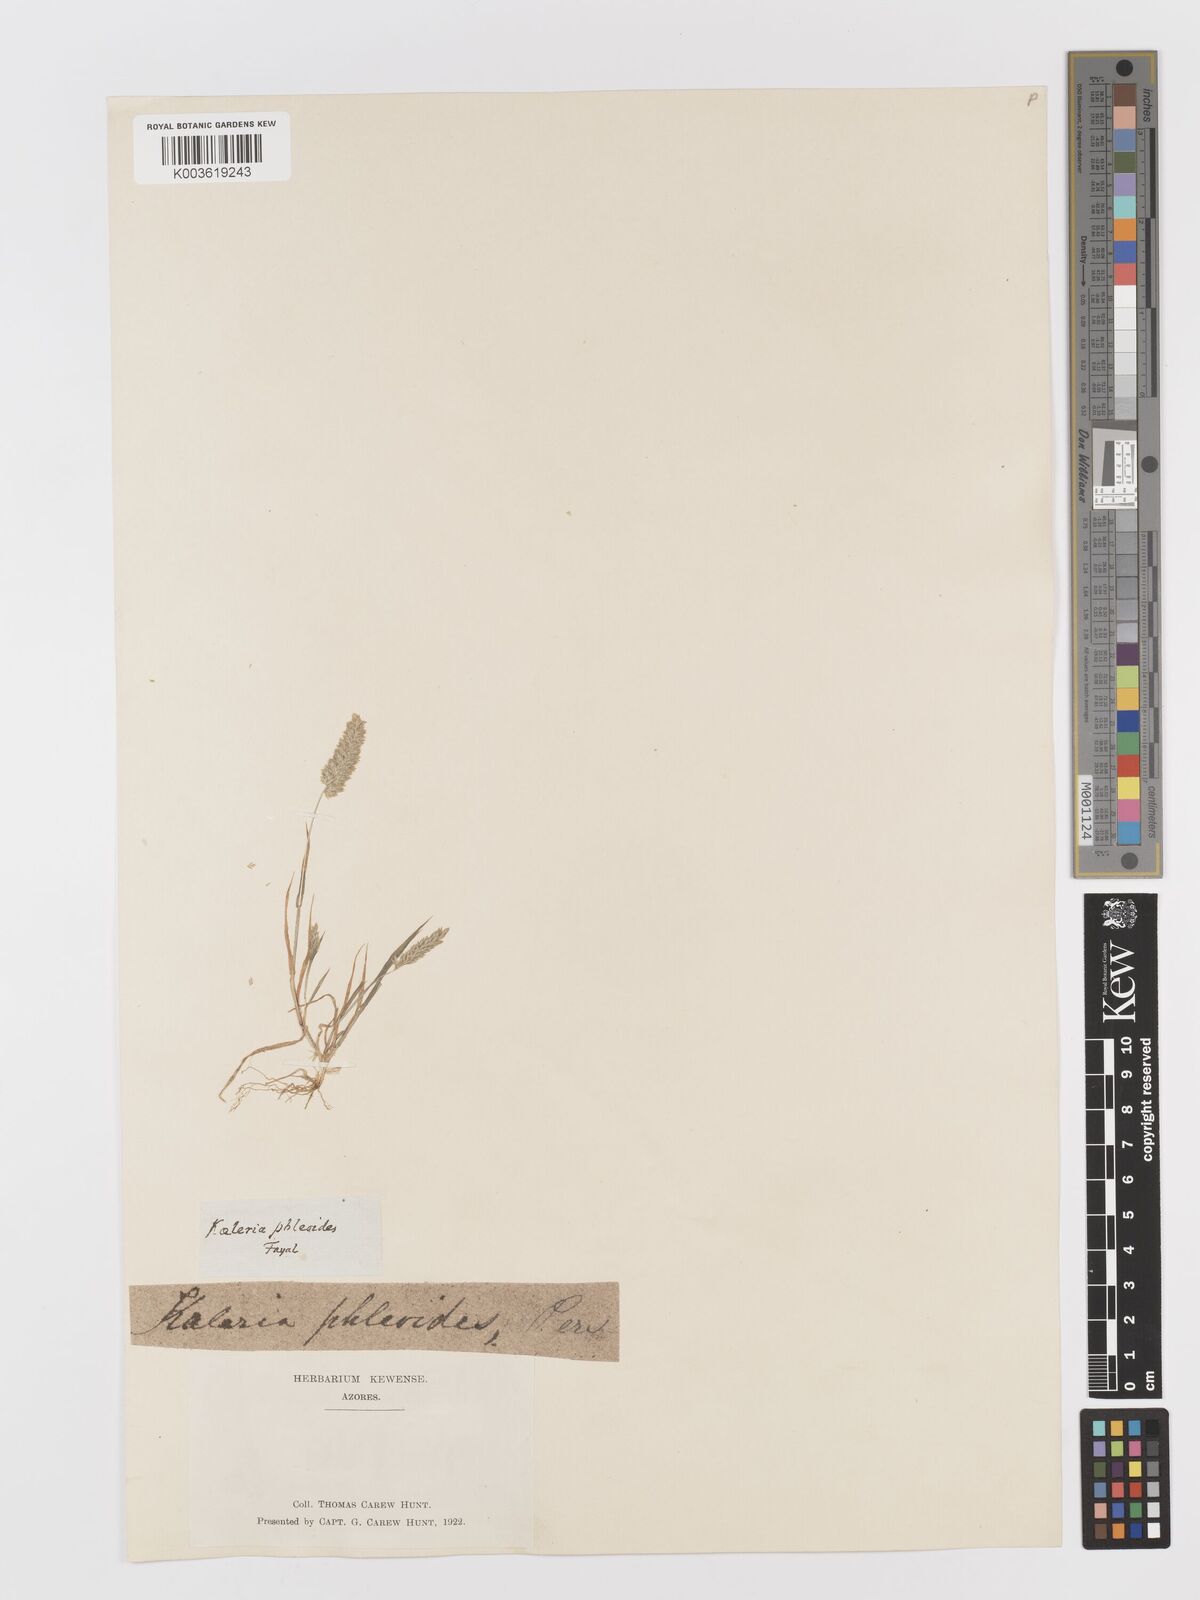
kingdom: Plantae
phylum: Tracheophyta
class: Liliopsida
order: Poales
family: Poaceae
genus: Rostraria
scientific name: Rostraria cristata
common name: Mediterranean hair-grass
